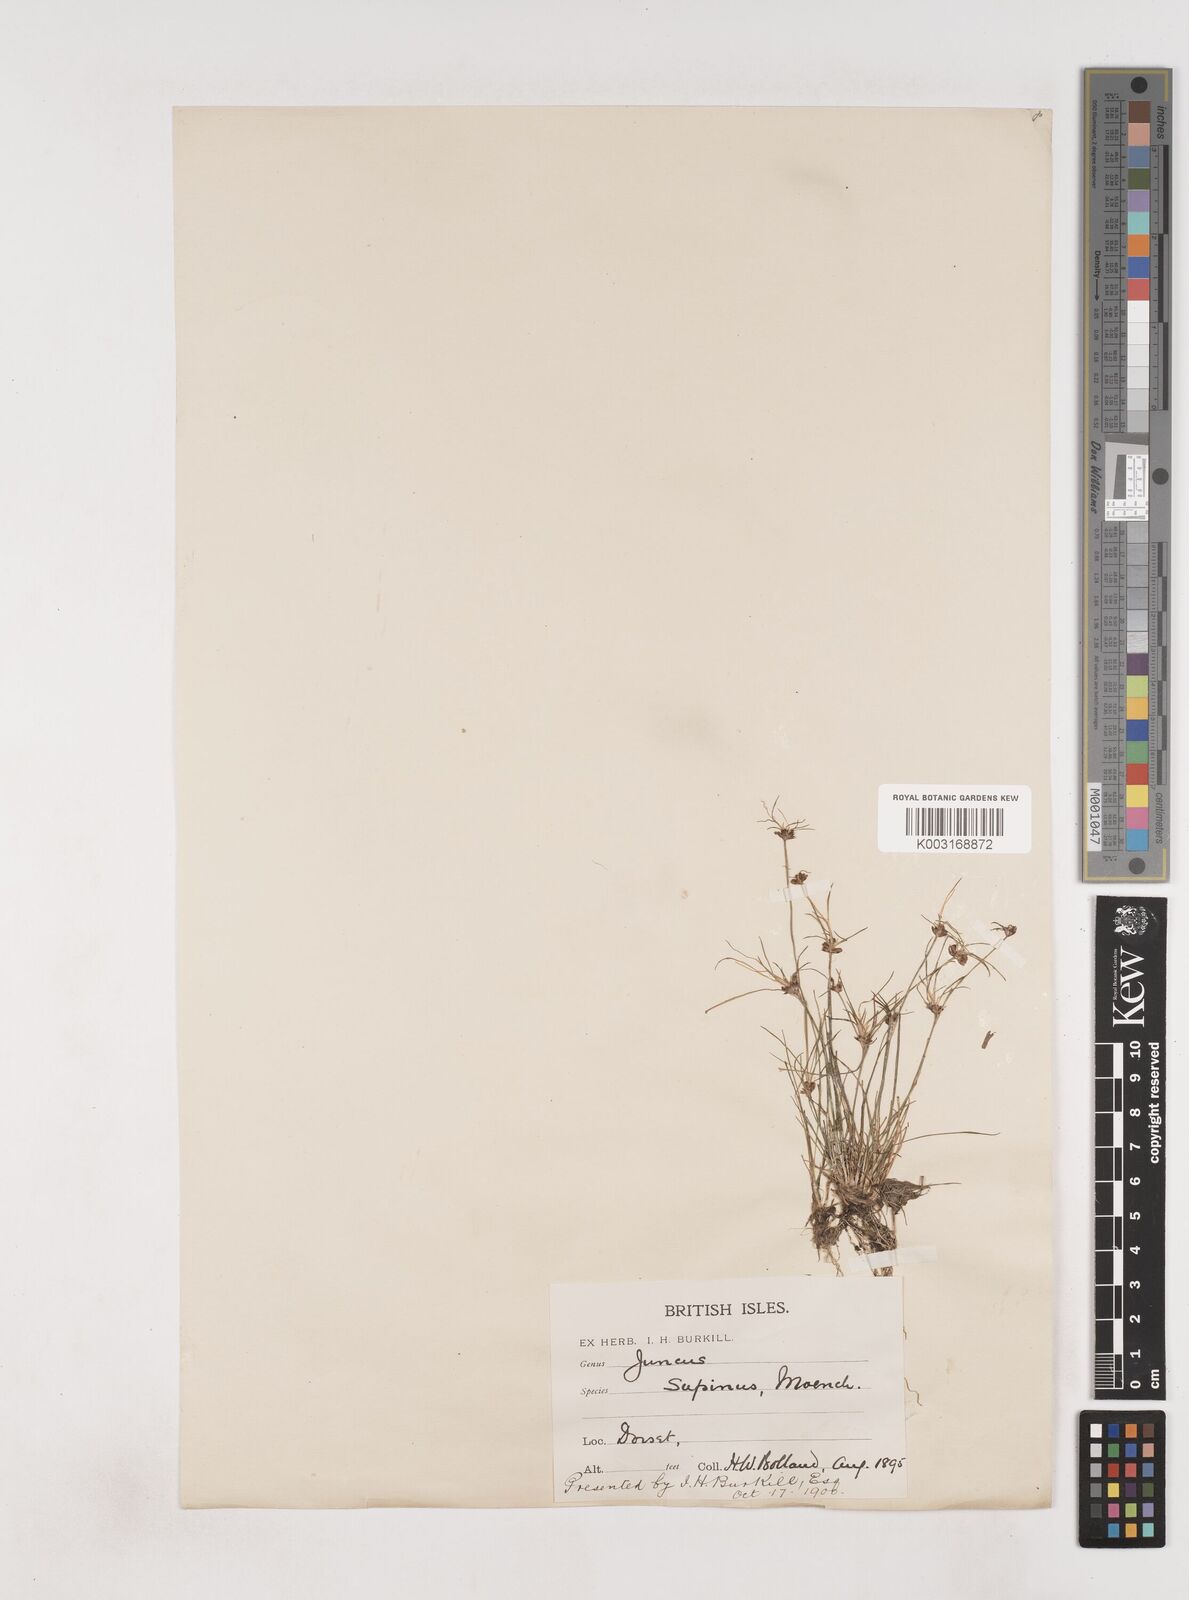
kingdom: Plantae
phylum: Tracheophyta
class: Liliopsida
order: Poales
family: Juncaceae
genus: Juncus
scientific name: Juncus bulbosus
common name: Bulbous rush
